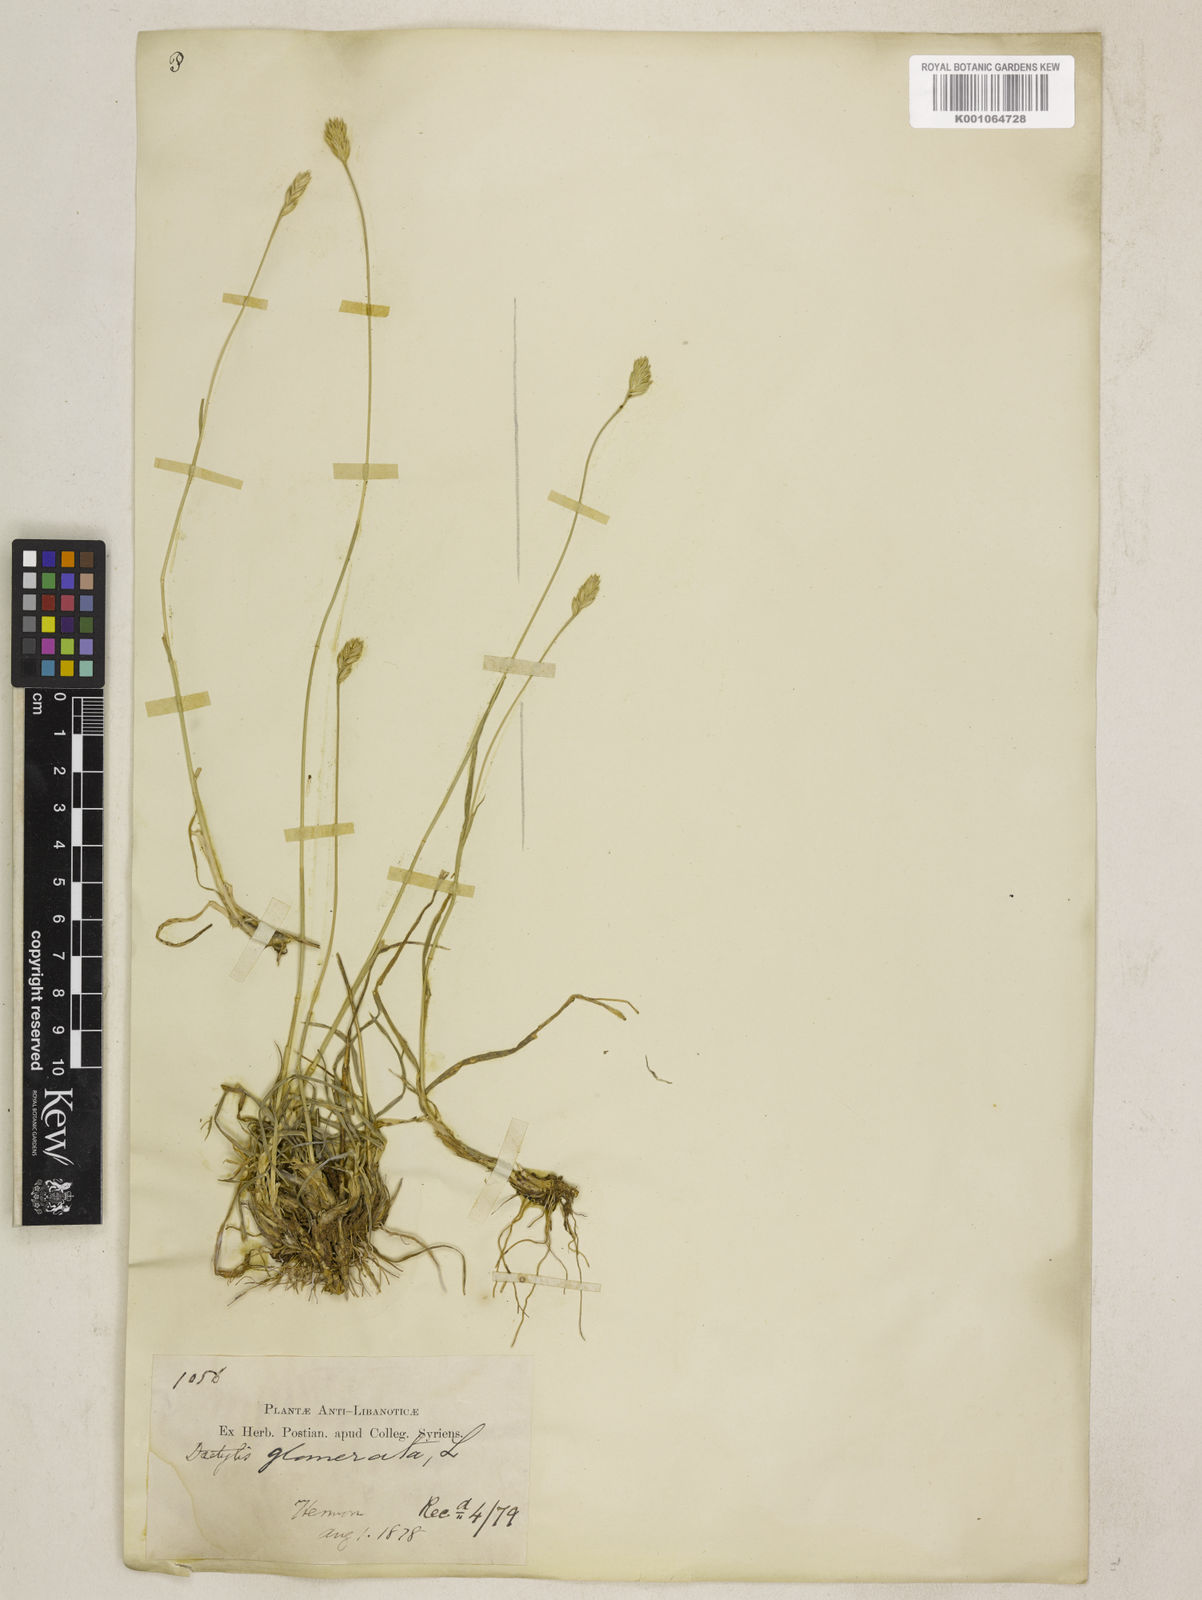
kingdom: Plantae
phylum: Tracheophyta
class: Liliopsida
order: Poales
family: Poaceae
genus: Dactylis
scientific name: Dactylis glomerata
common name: Orchardgrass
